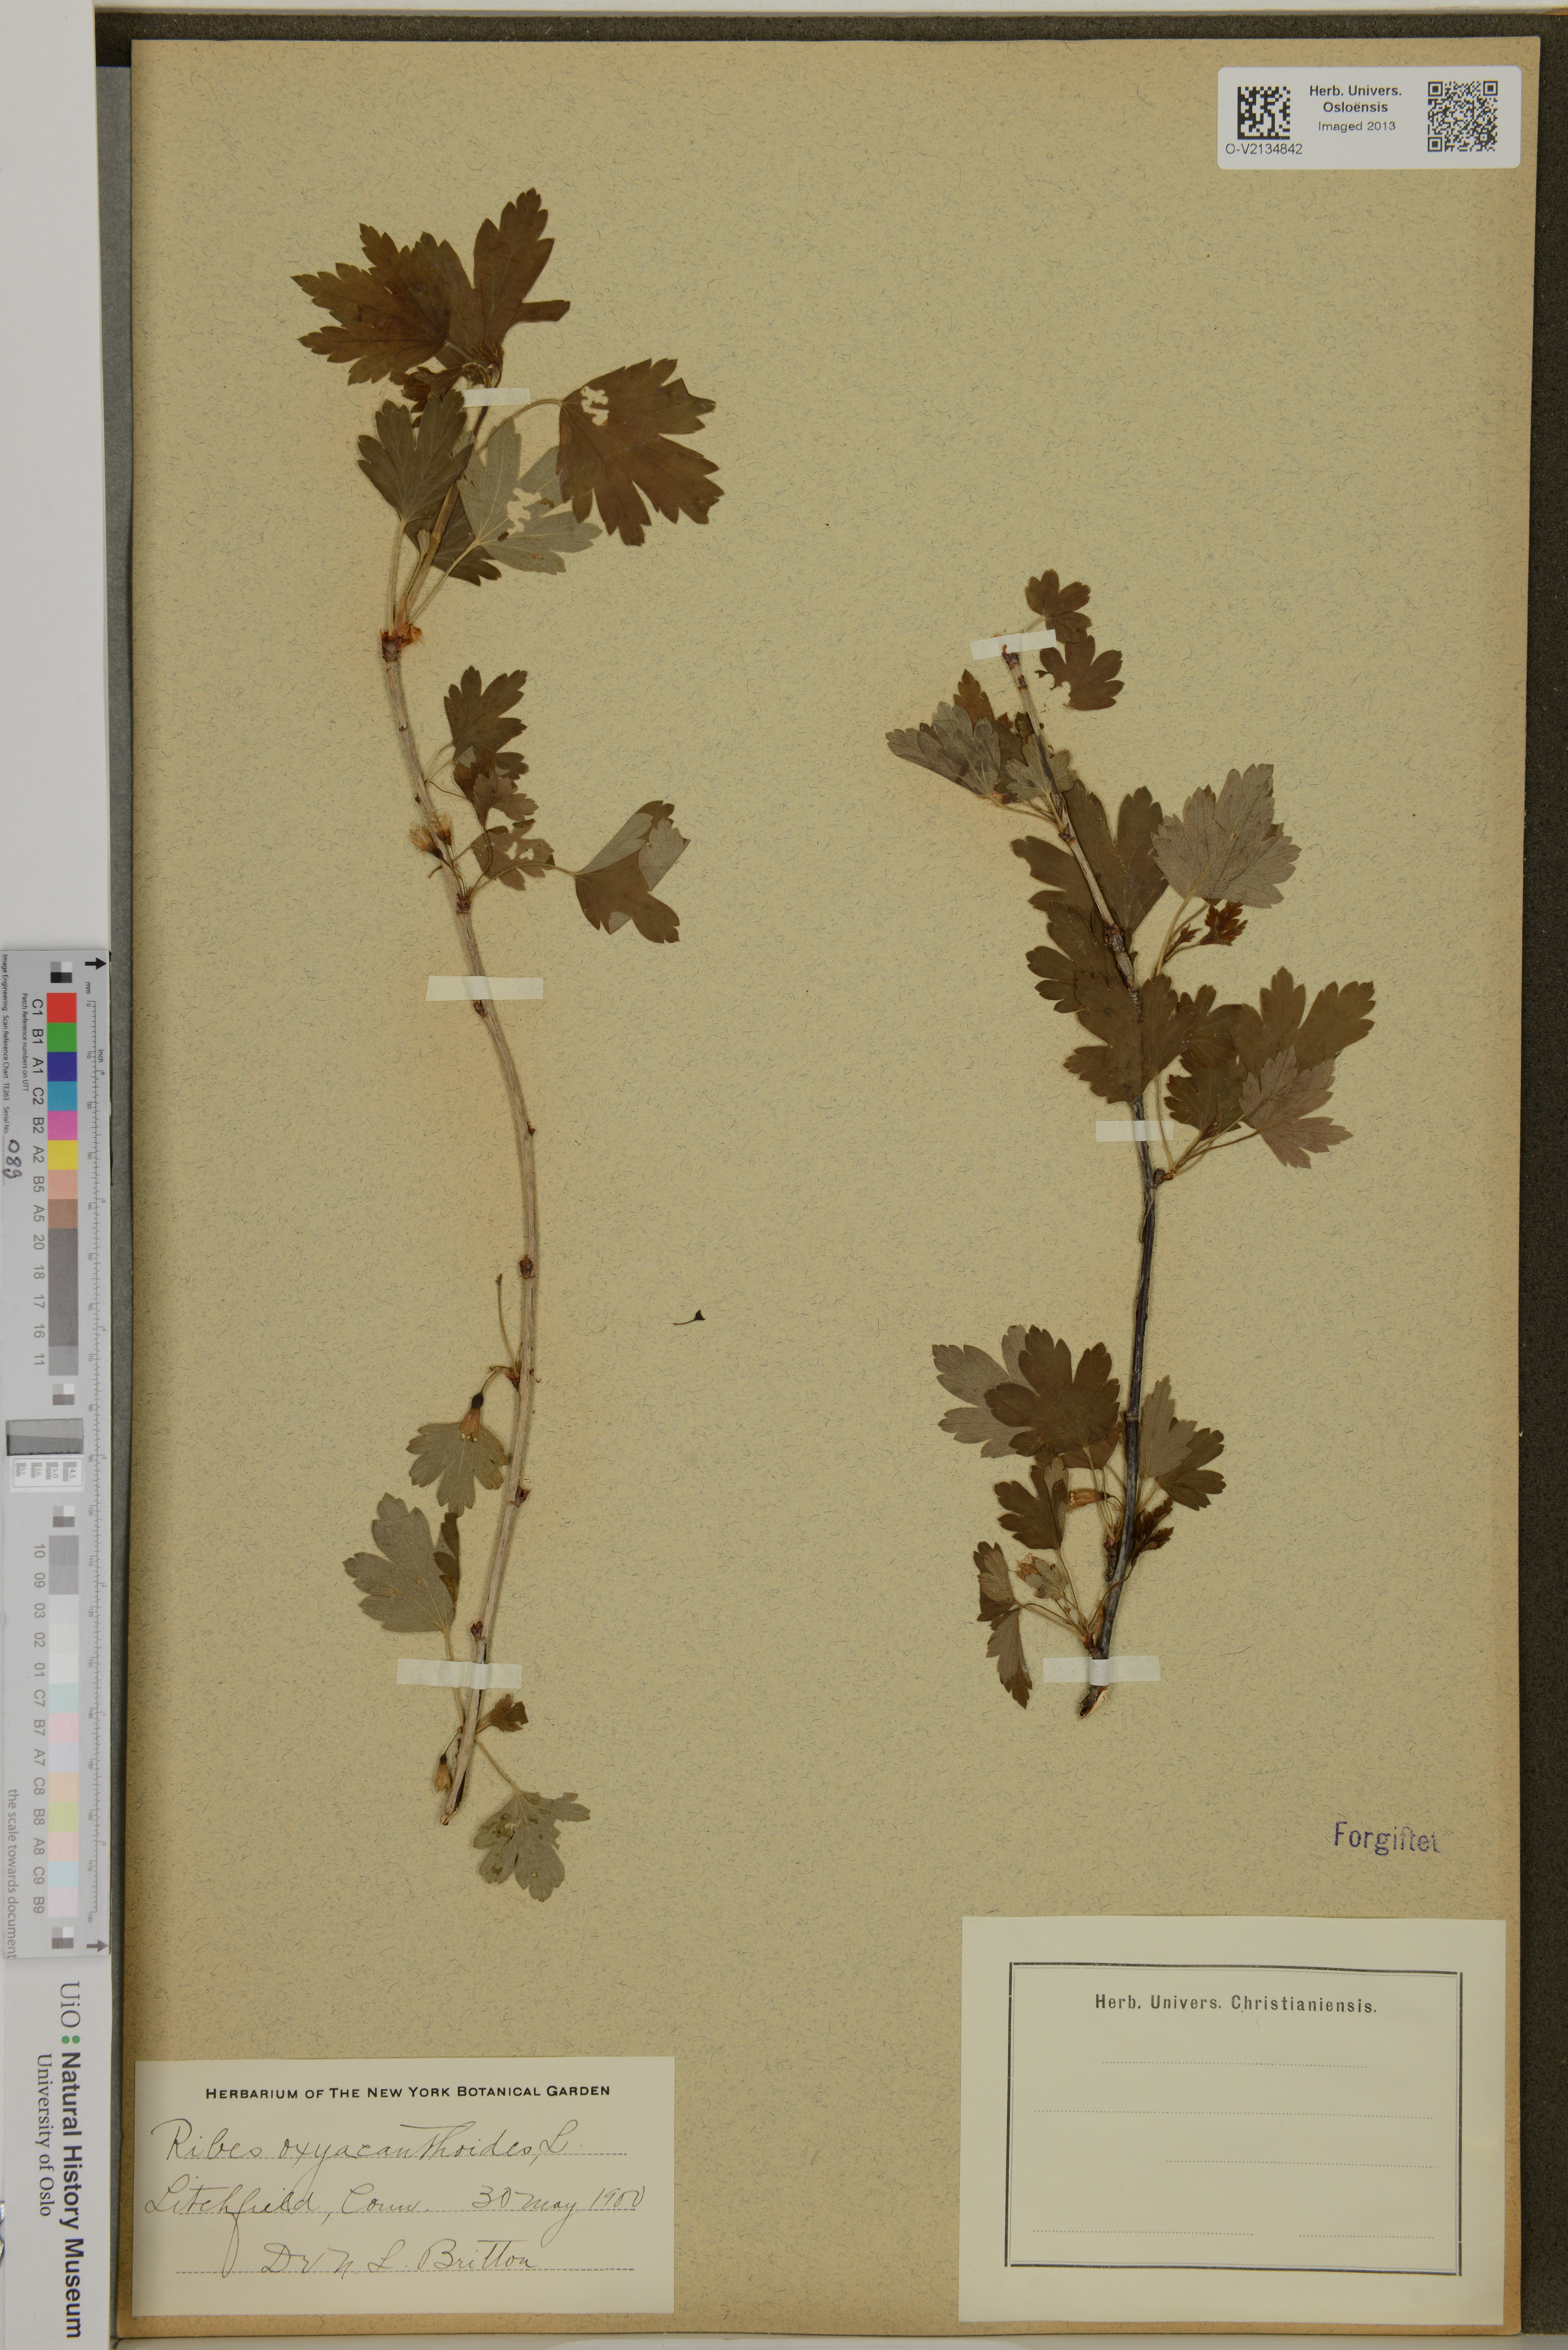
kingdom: Plantae
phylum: Tracheophyta
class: Magnoliopsida
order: Saxifragales
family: Grossulariaceae
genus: Ribes
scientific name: Ribes oxyacanthoides
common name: Northern gooseberry
